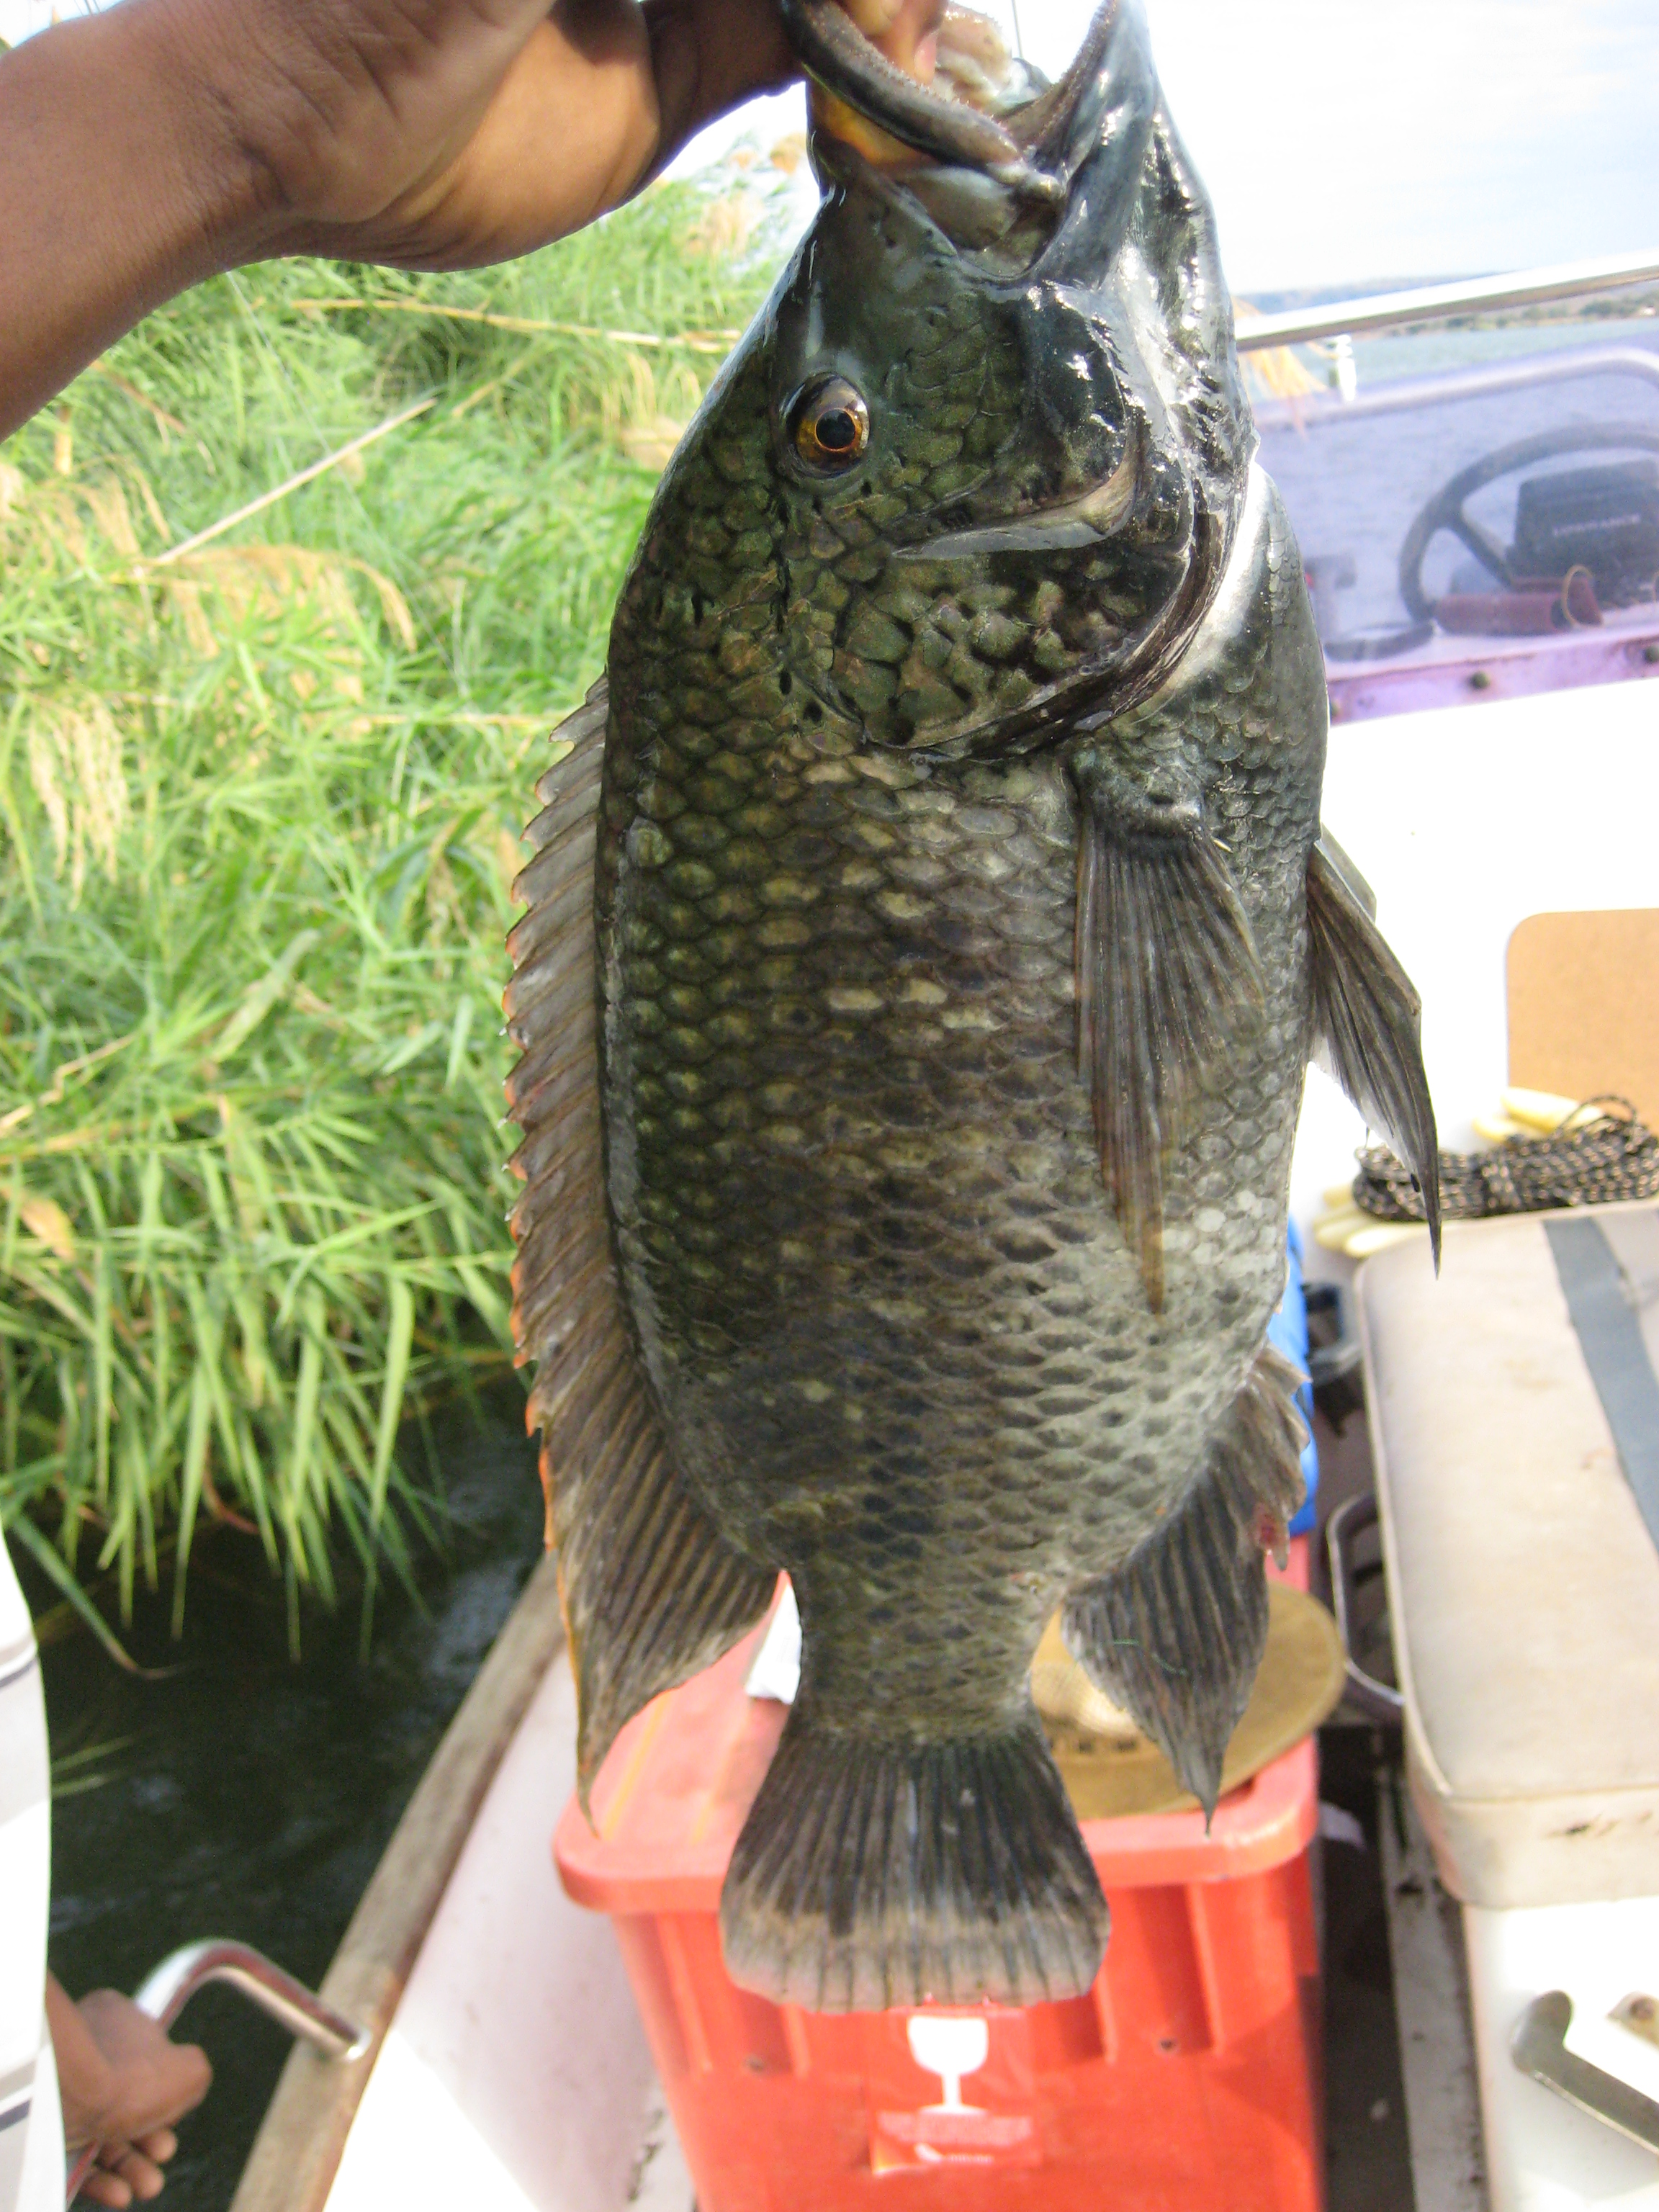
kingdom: Animalia
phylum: Chordata
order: Perciformes
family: Cichlidae
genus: Oreochromis
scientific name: Oreochromis
